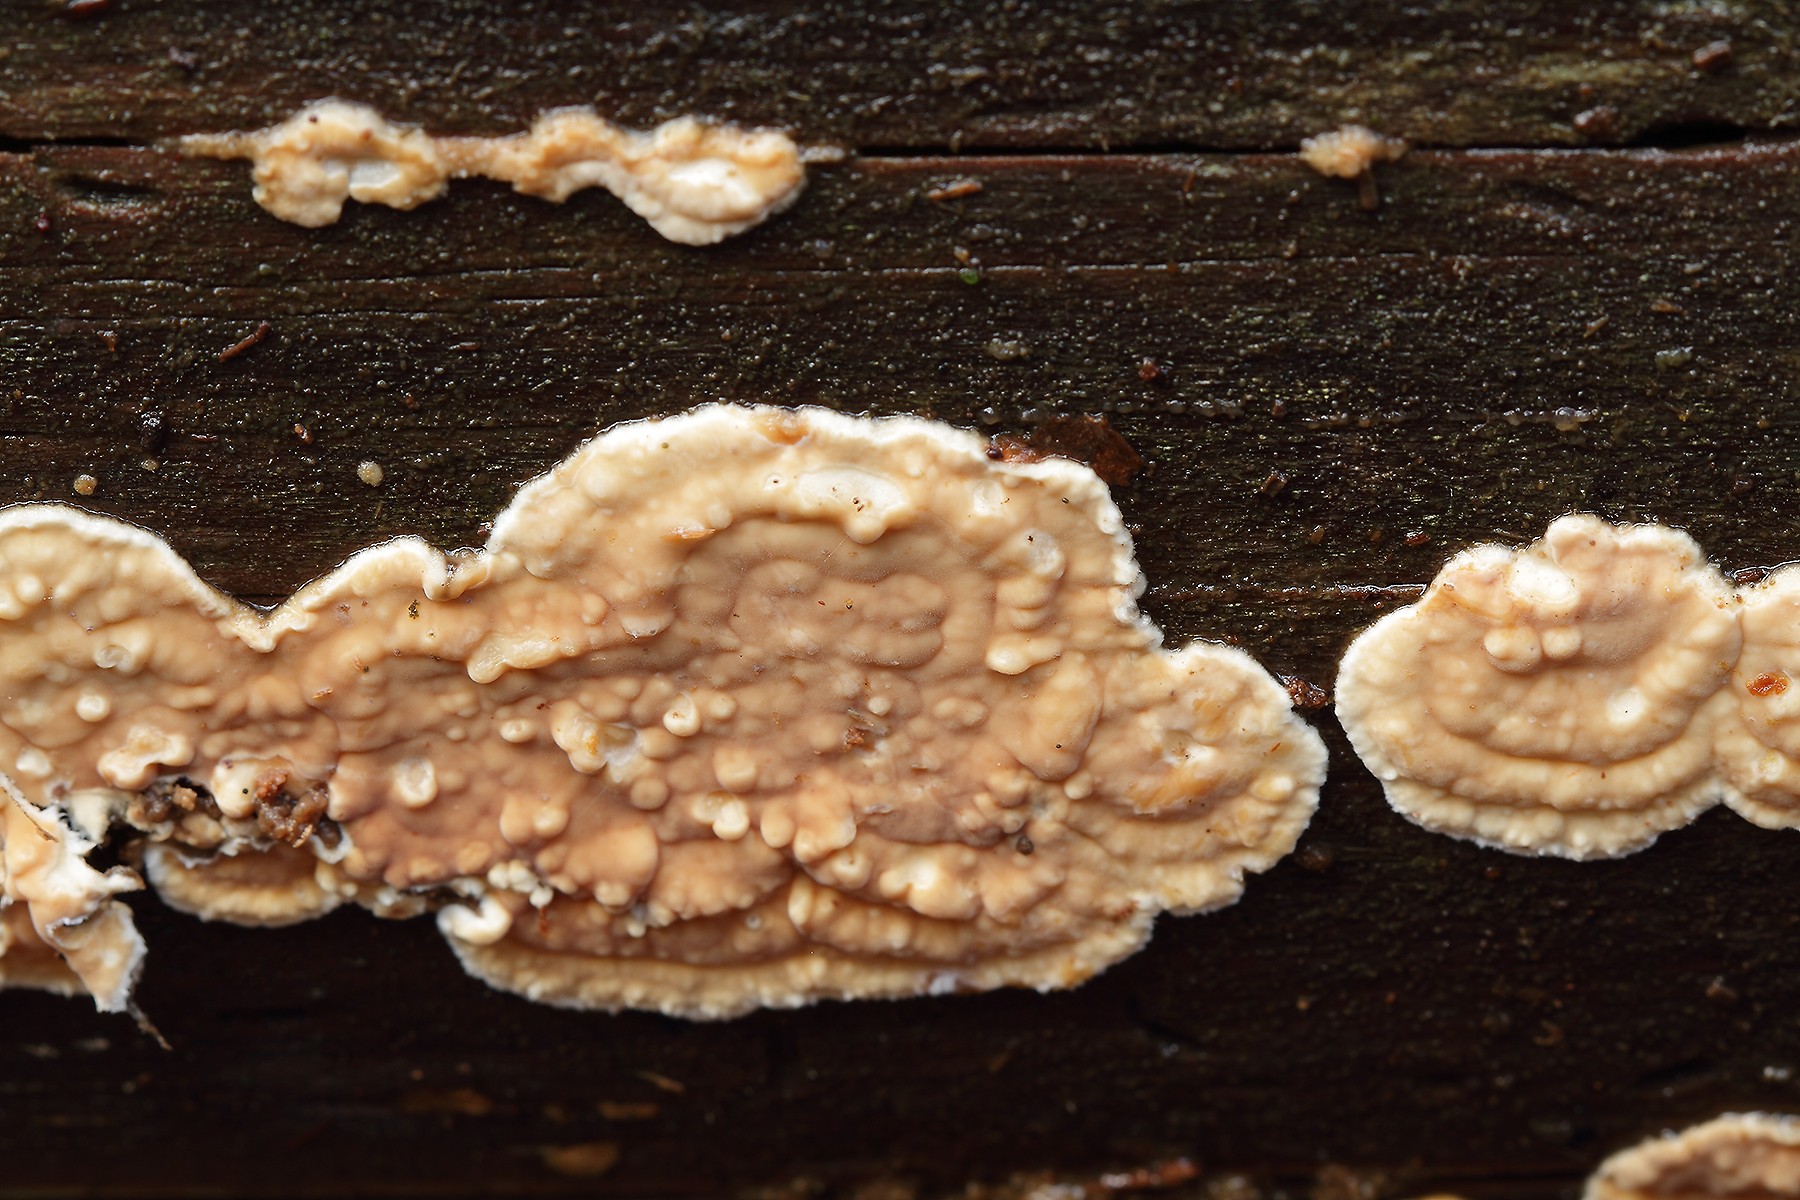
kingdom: Fungi
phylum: Basidiomycota
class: Agaricomycetes
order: Polyporales
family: Dacryobolaceae
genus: Dacryobolus
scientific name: Dacryobolus karstenii
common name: glat vulkanskorpe
